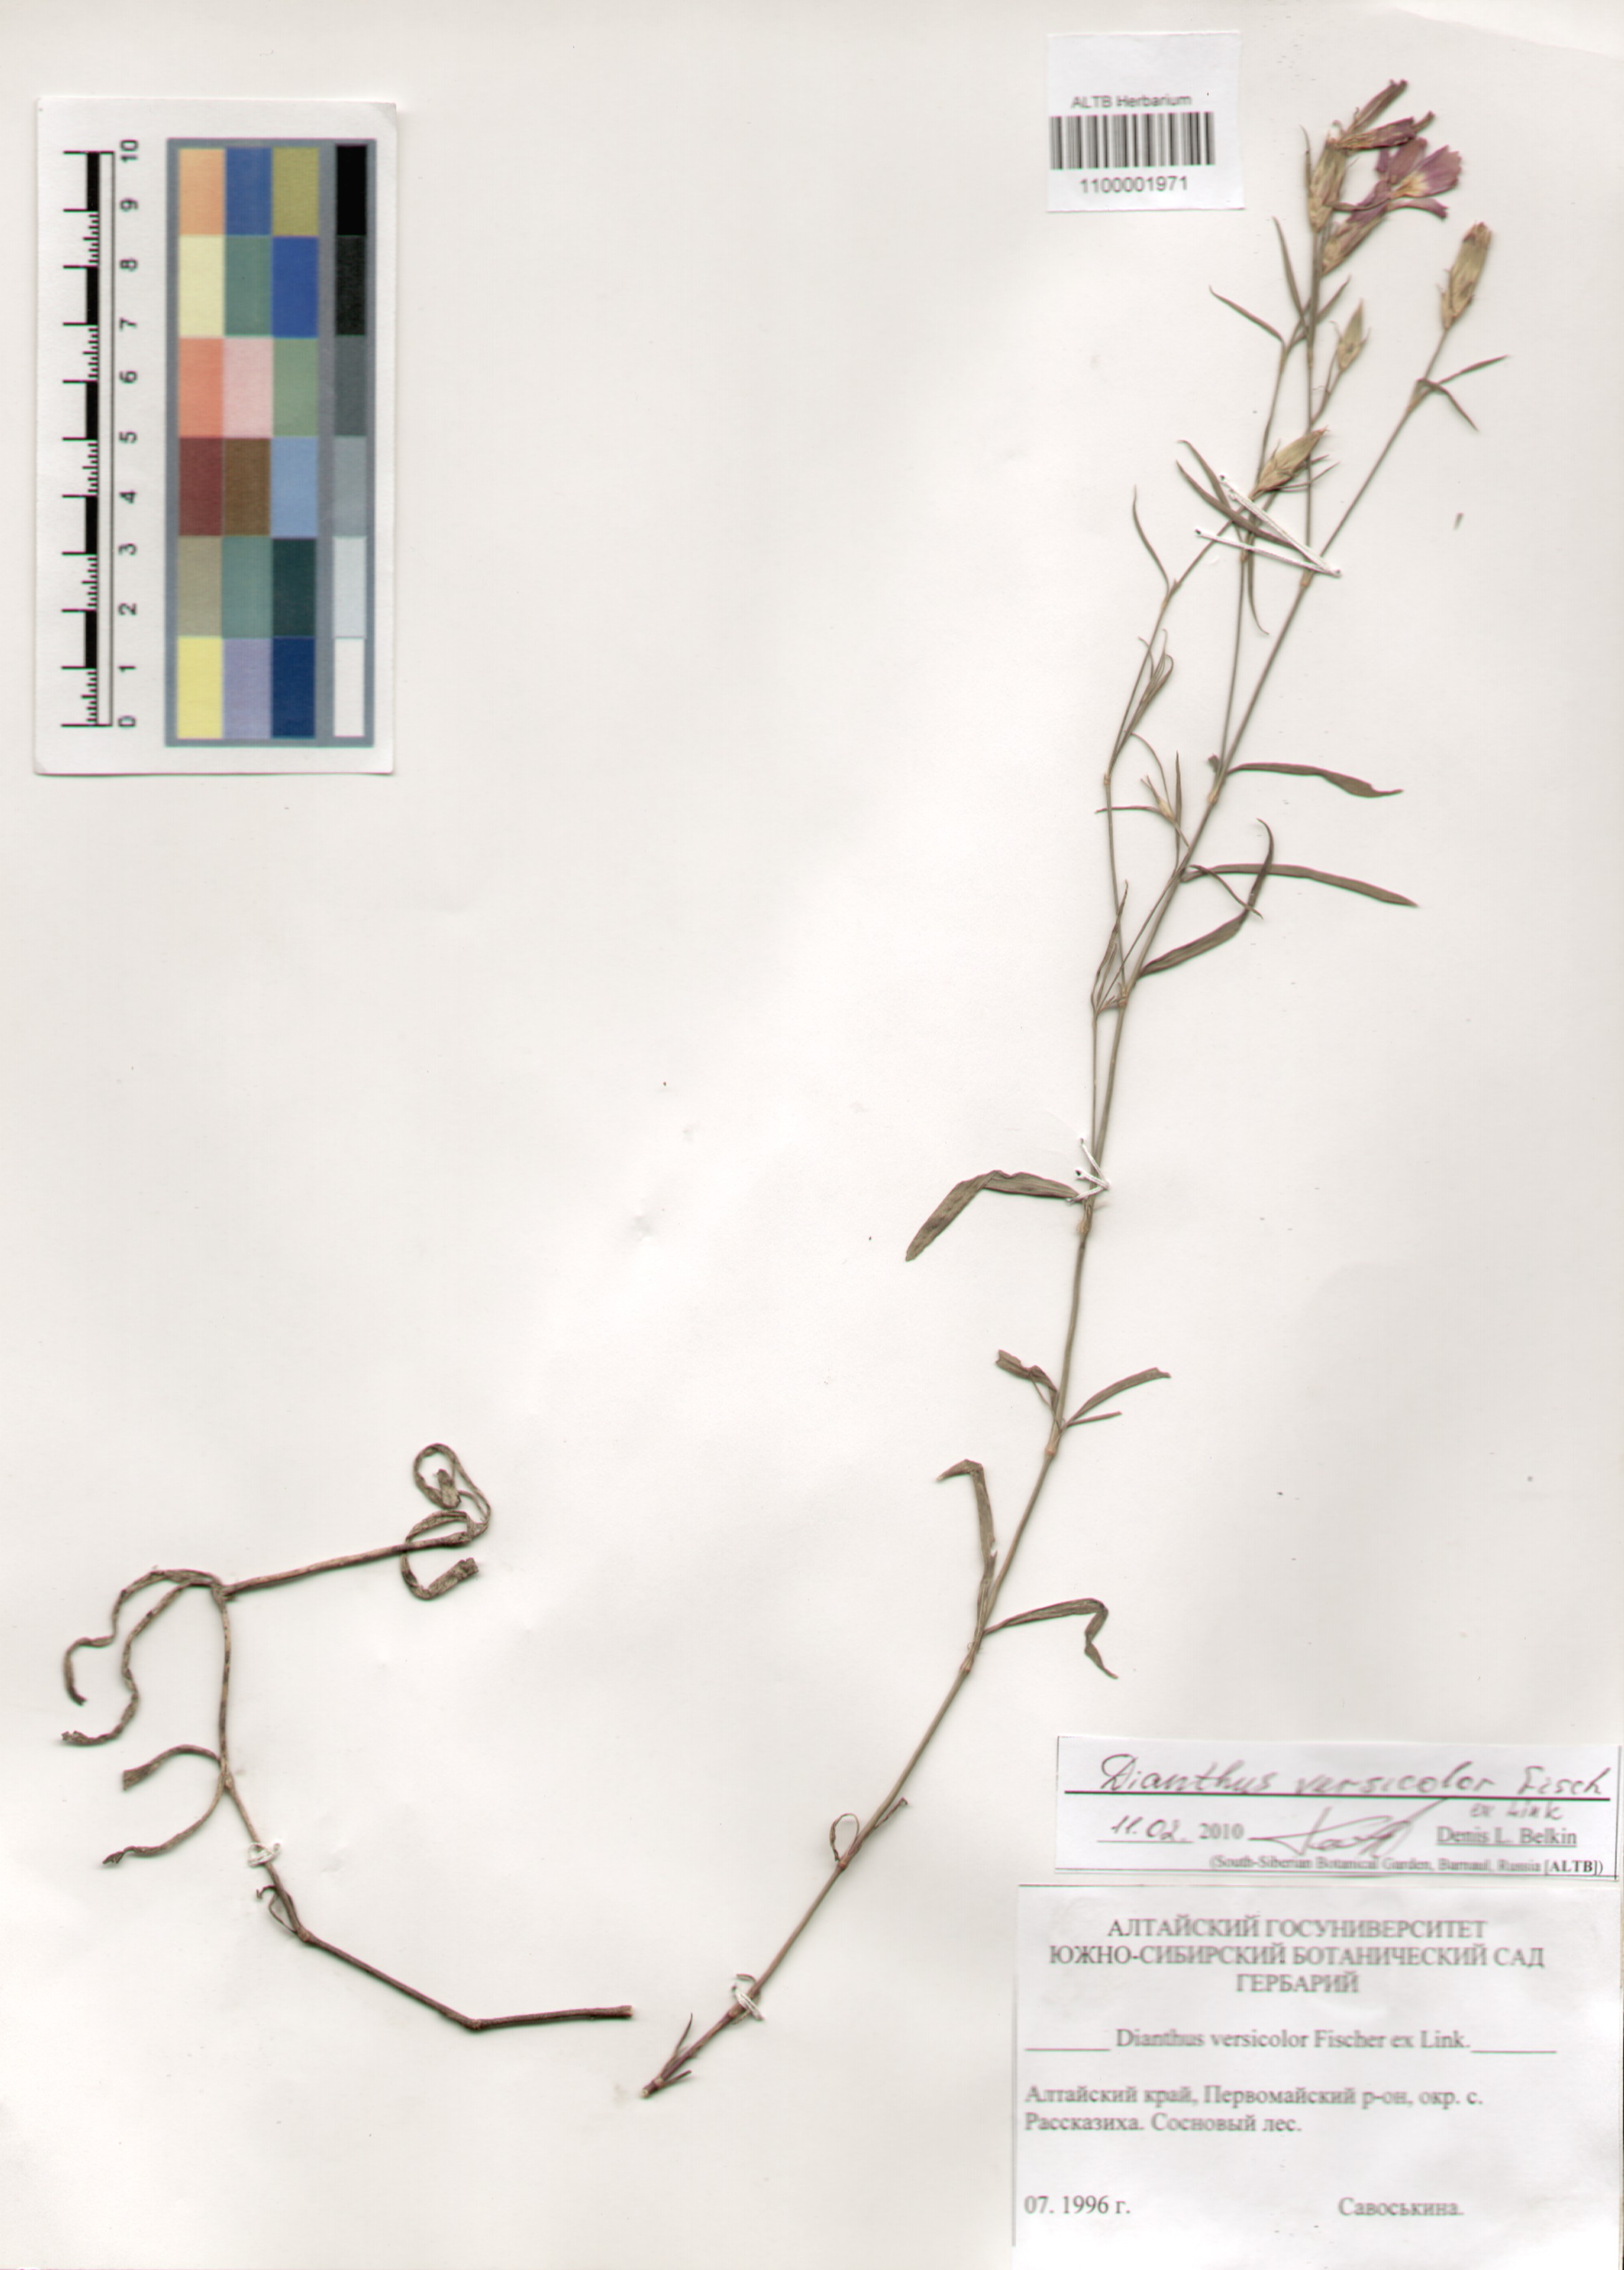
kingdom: Plantae
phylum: Tracheophyta
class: Magnoliopsida
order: Caryophyllales
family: Caryophyllaceae
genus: Dianthus
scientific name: Dianthus chinensis
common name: Rainbow pink
